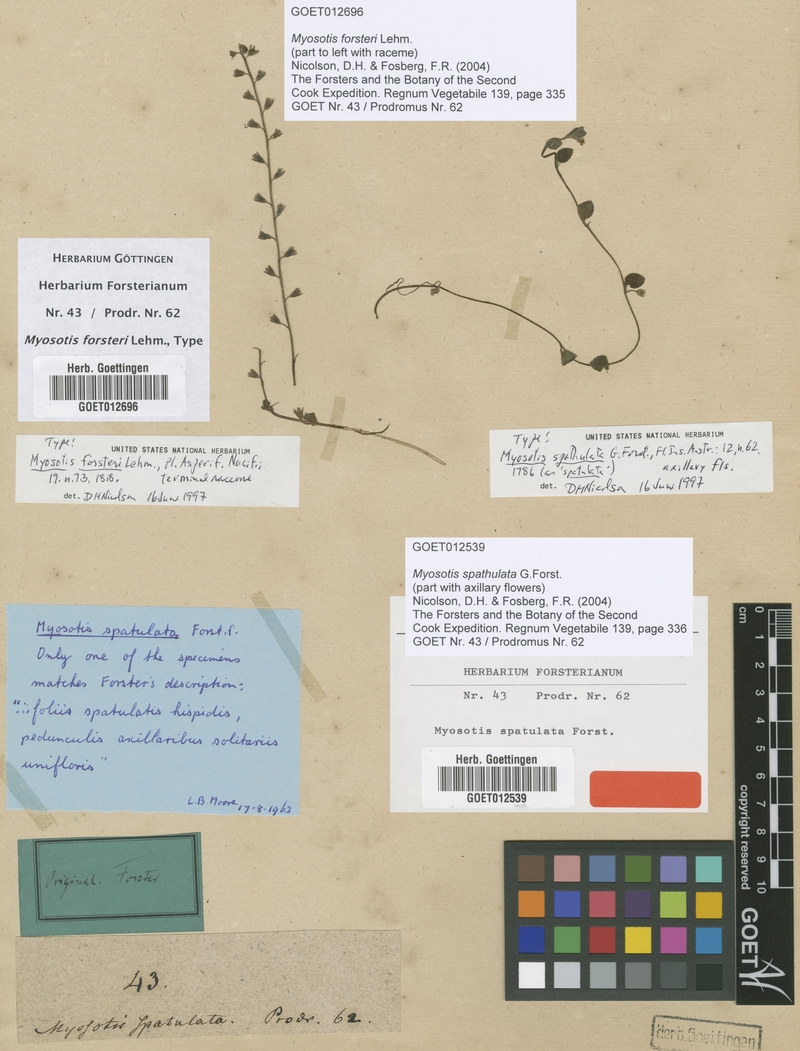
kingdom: Plantae
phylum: Tracheophyta
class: Magnoliopsida
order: Boraginales
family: Boraginaceae
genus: Myosotis
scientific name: Myosotis spathulata
